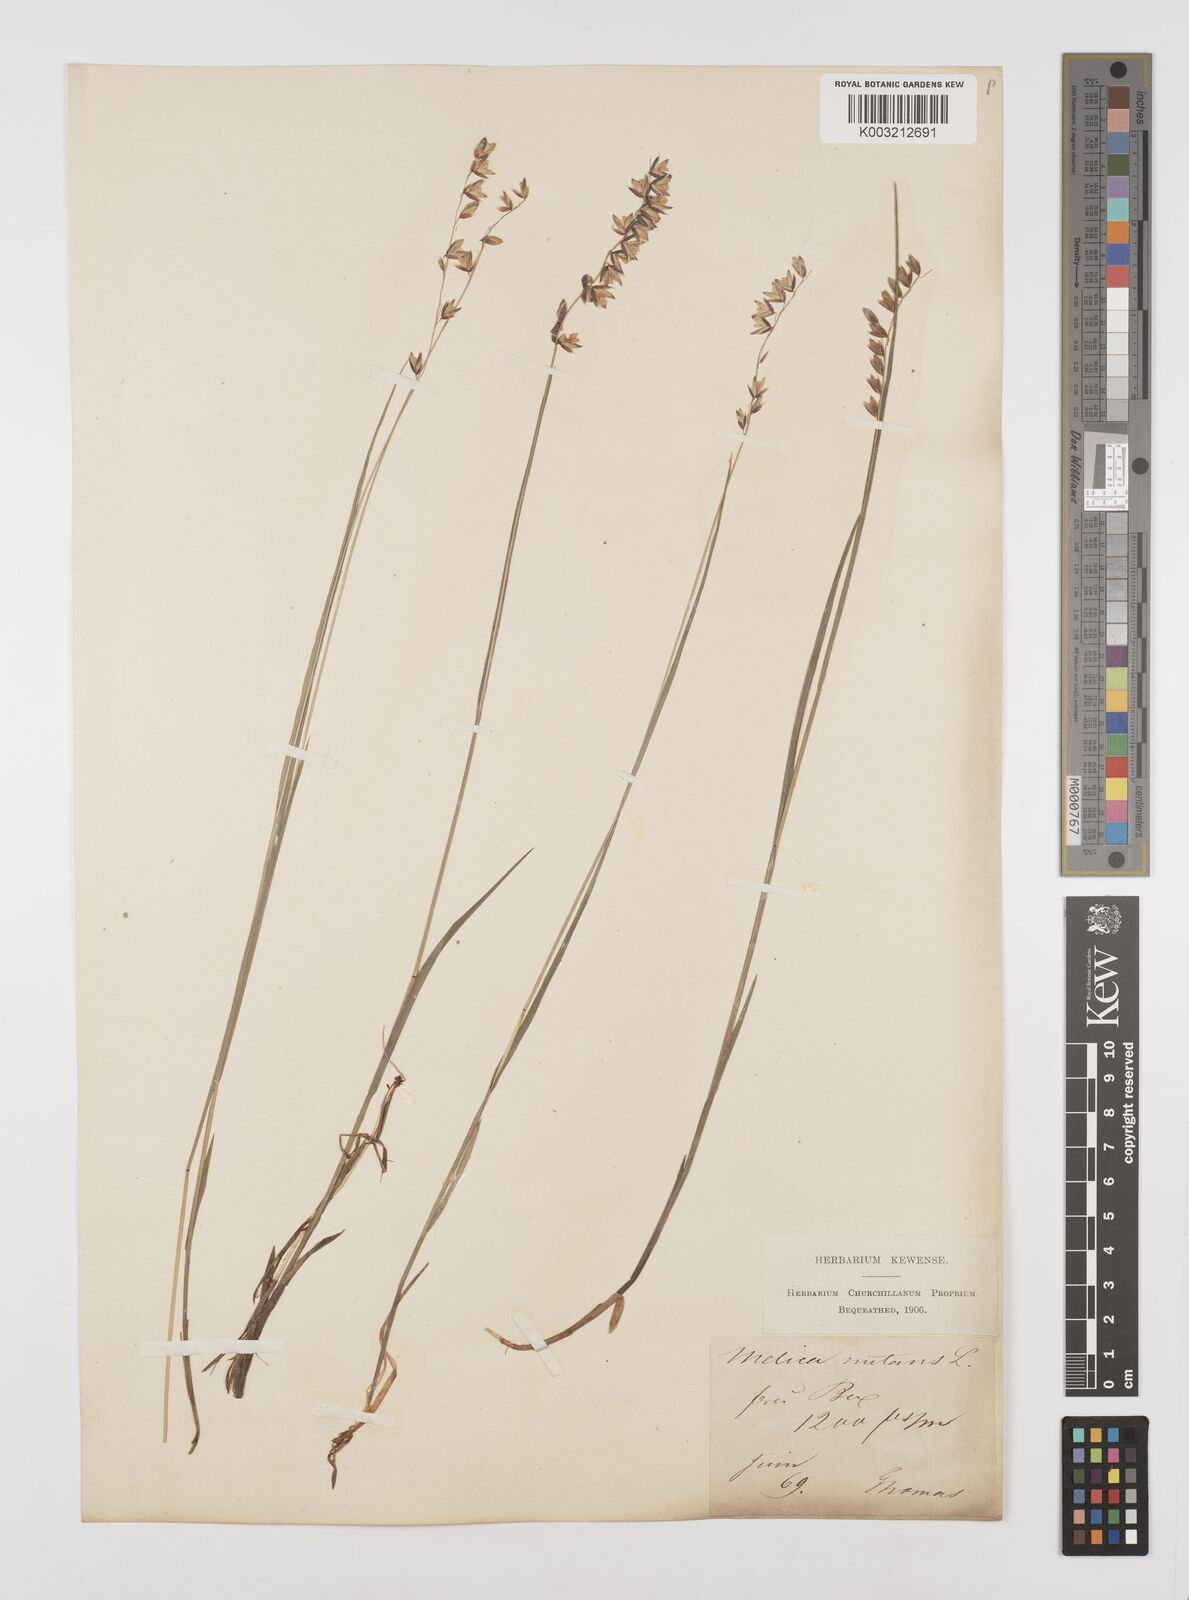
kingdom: Plantae
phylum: Tracheophyta
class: Liliopsida
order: Poales
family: Poaceae
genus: Melica
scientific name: Melica nutans
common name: Mountain melick
